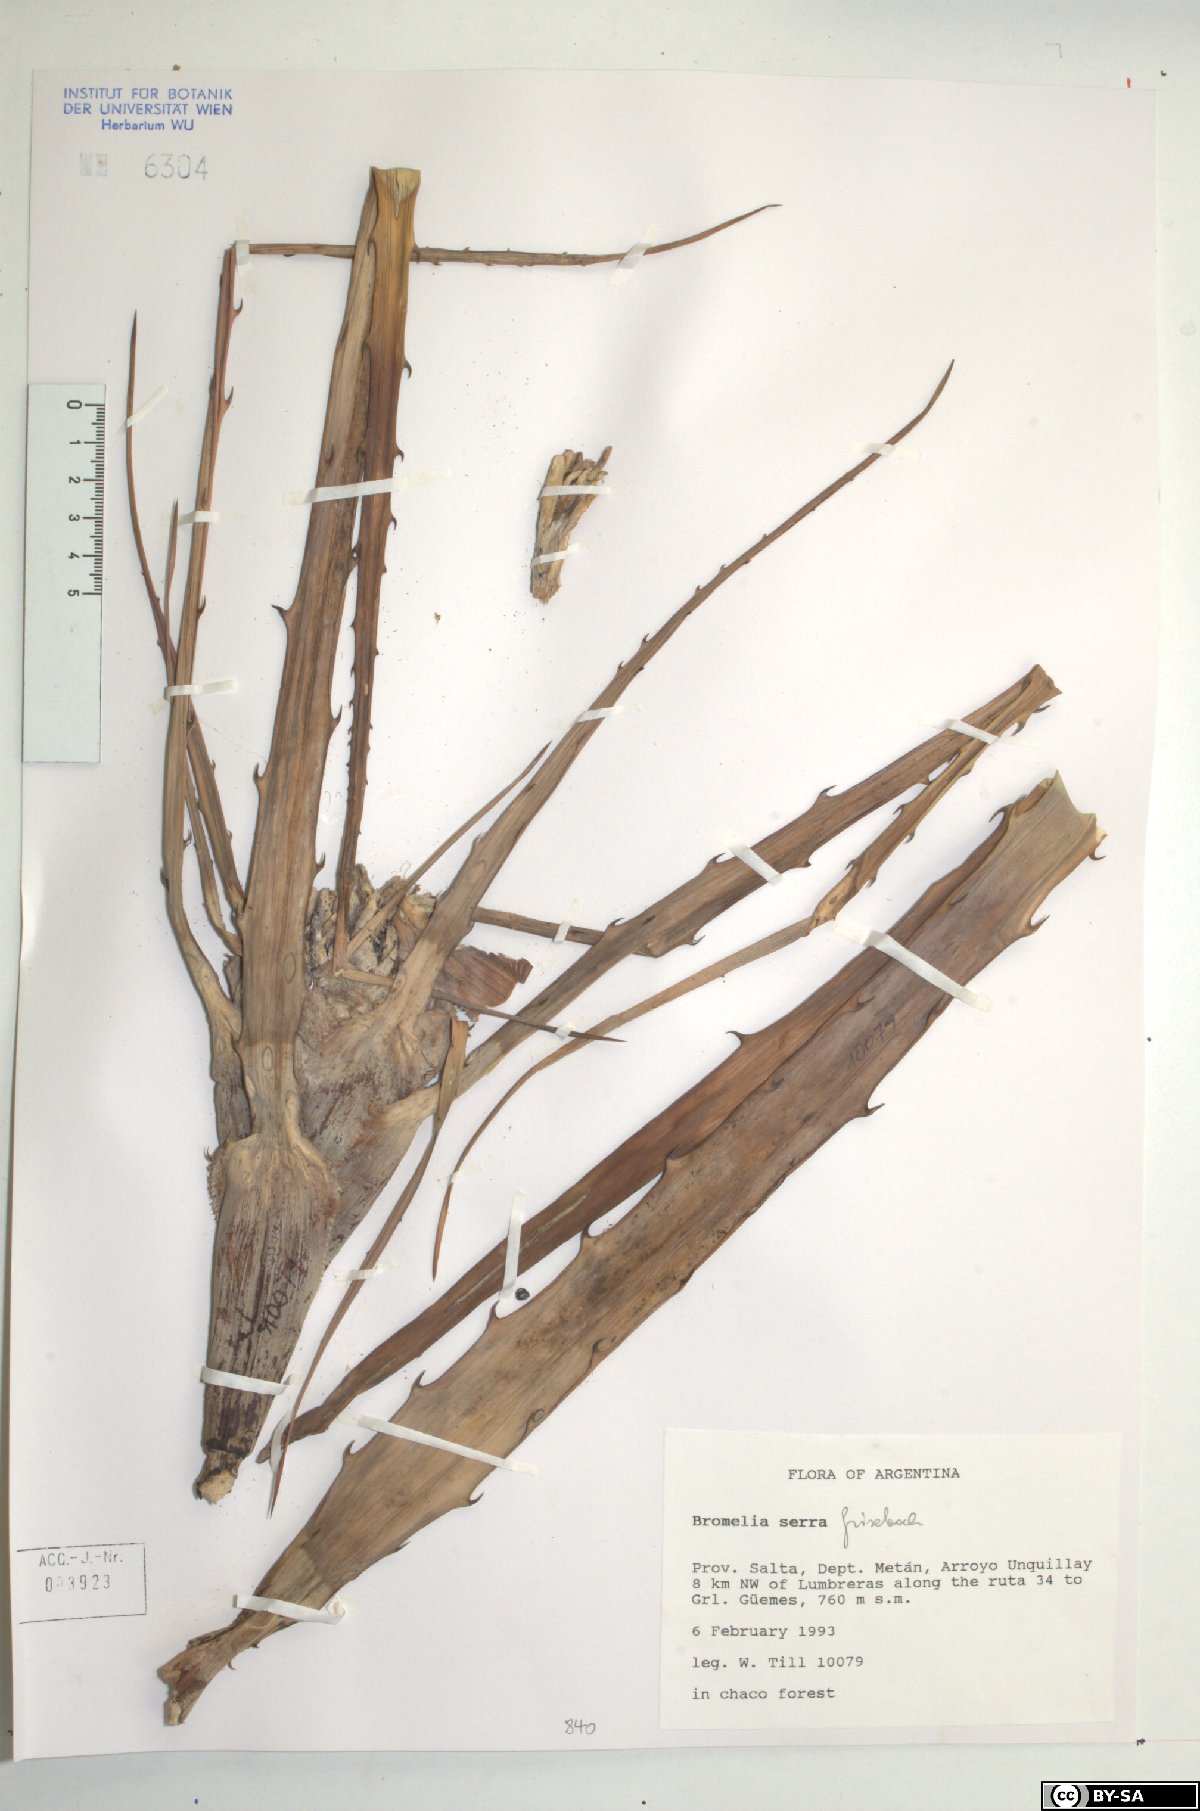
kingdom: Plantae
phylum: Tracheophyta
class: Liliopsida
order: Poales
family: Bromeliaceae
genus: Bromelia
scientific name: Bromelia serra
